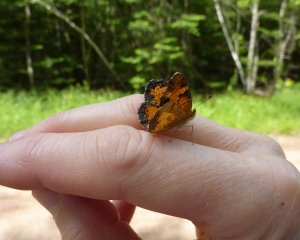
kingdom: Animalia
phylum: Arthropoda
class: Insecta
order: Lepidoptera
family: Nymphalidae
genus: Phyciodes
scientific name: Phyciodes tharos
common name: Northern Crescent
